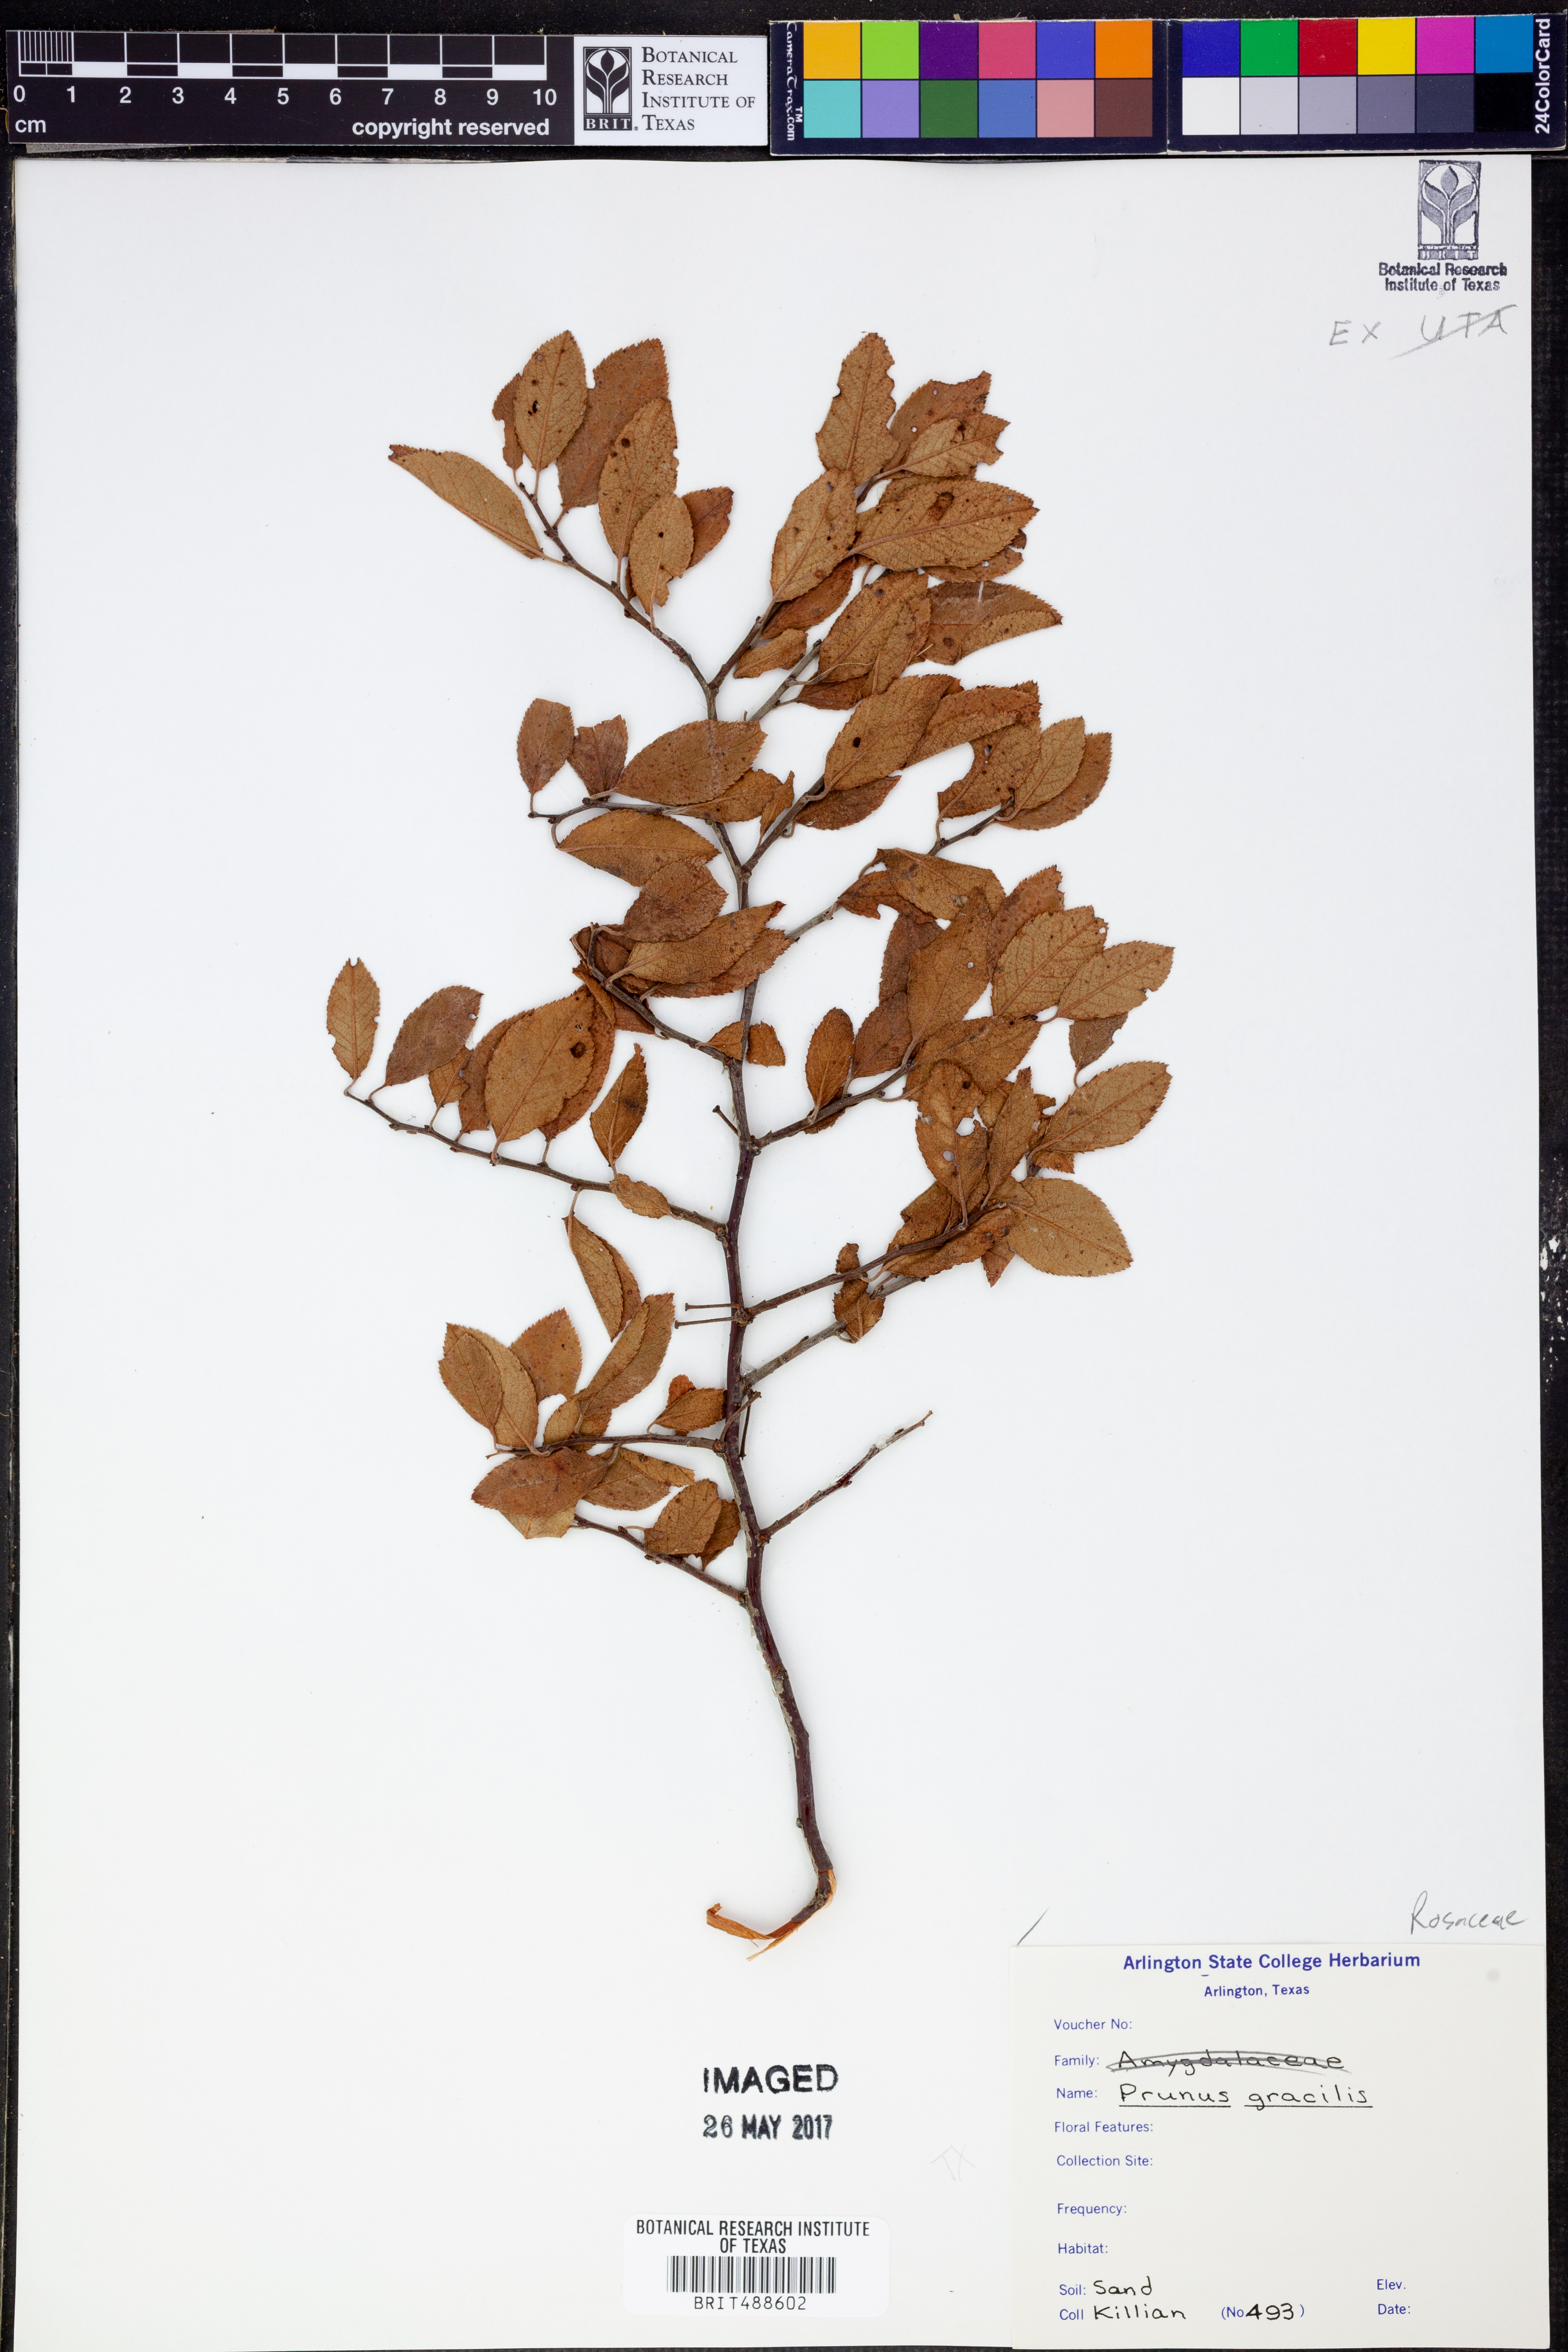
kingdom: Plantae
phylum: Tracheophyta
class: Magnoliopsida
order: Rosales
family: Rosaceae
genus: Prunus
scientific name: Prunus gracilis
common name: Oklahoma plum
